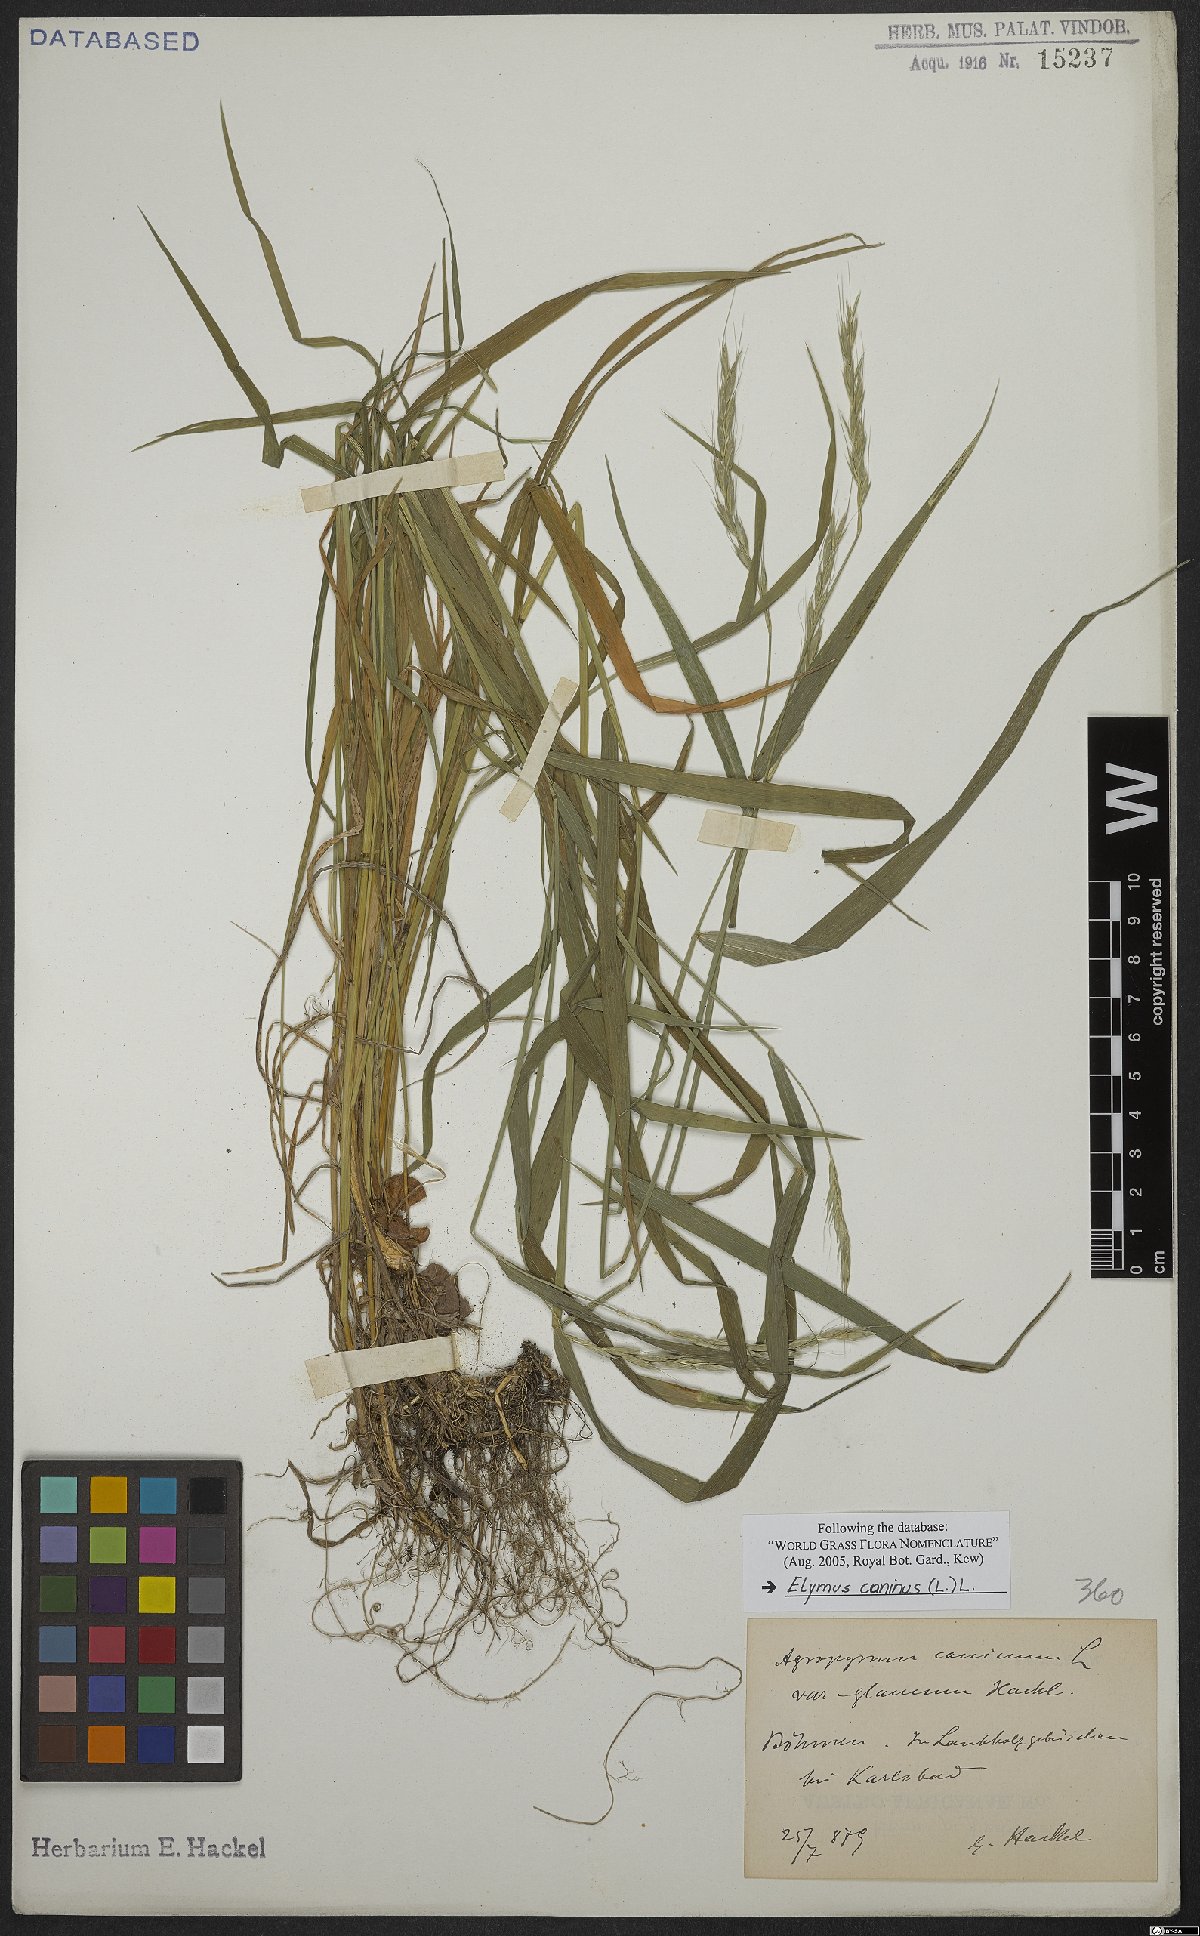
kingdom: Plantae
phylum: Tracheophyta
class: Liliopsida
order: Poales
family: Poaceae
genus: Elymus
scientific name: Elymus caninus
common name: Bearded couch
